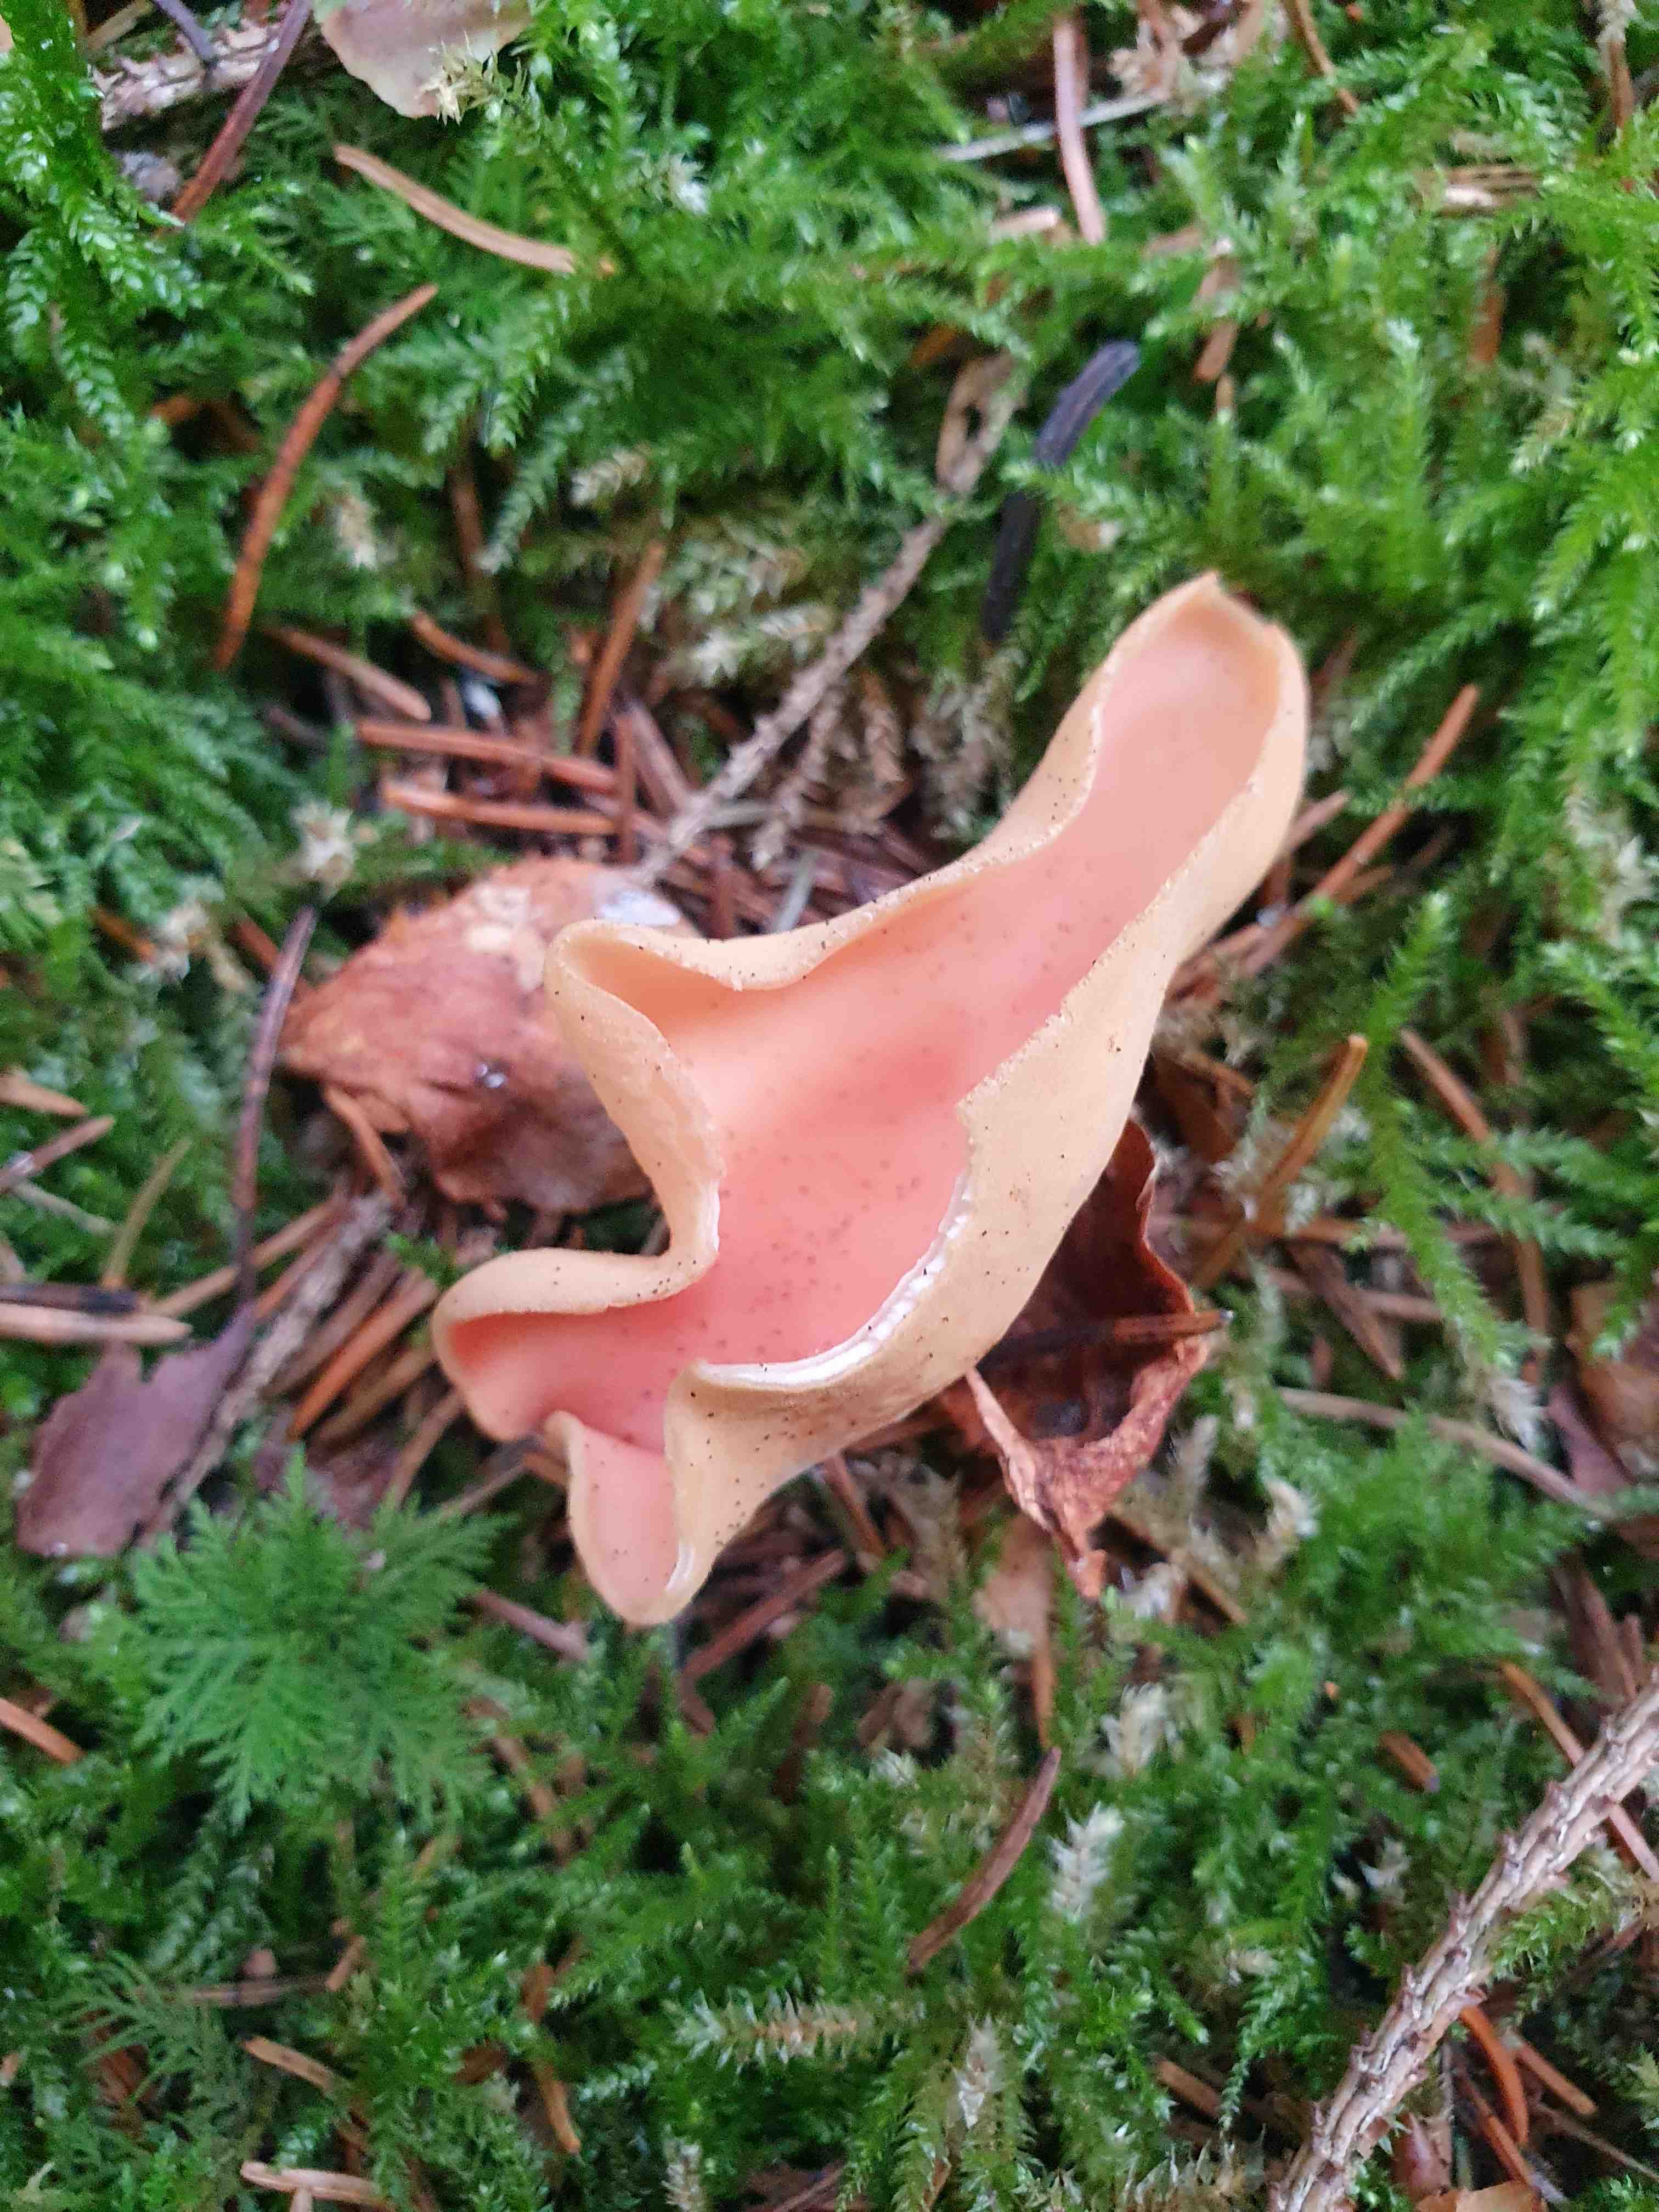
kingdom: Fungi
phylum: Ascomycota
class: Pezizomycetes
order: Pezizales
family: Otideaceae
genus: Otidea
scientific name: Otidea onotica
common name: æsel-ørebæger
